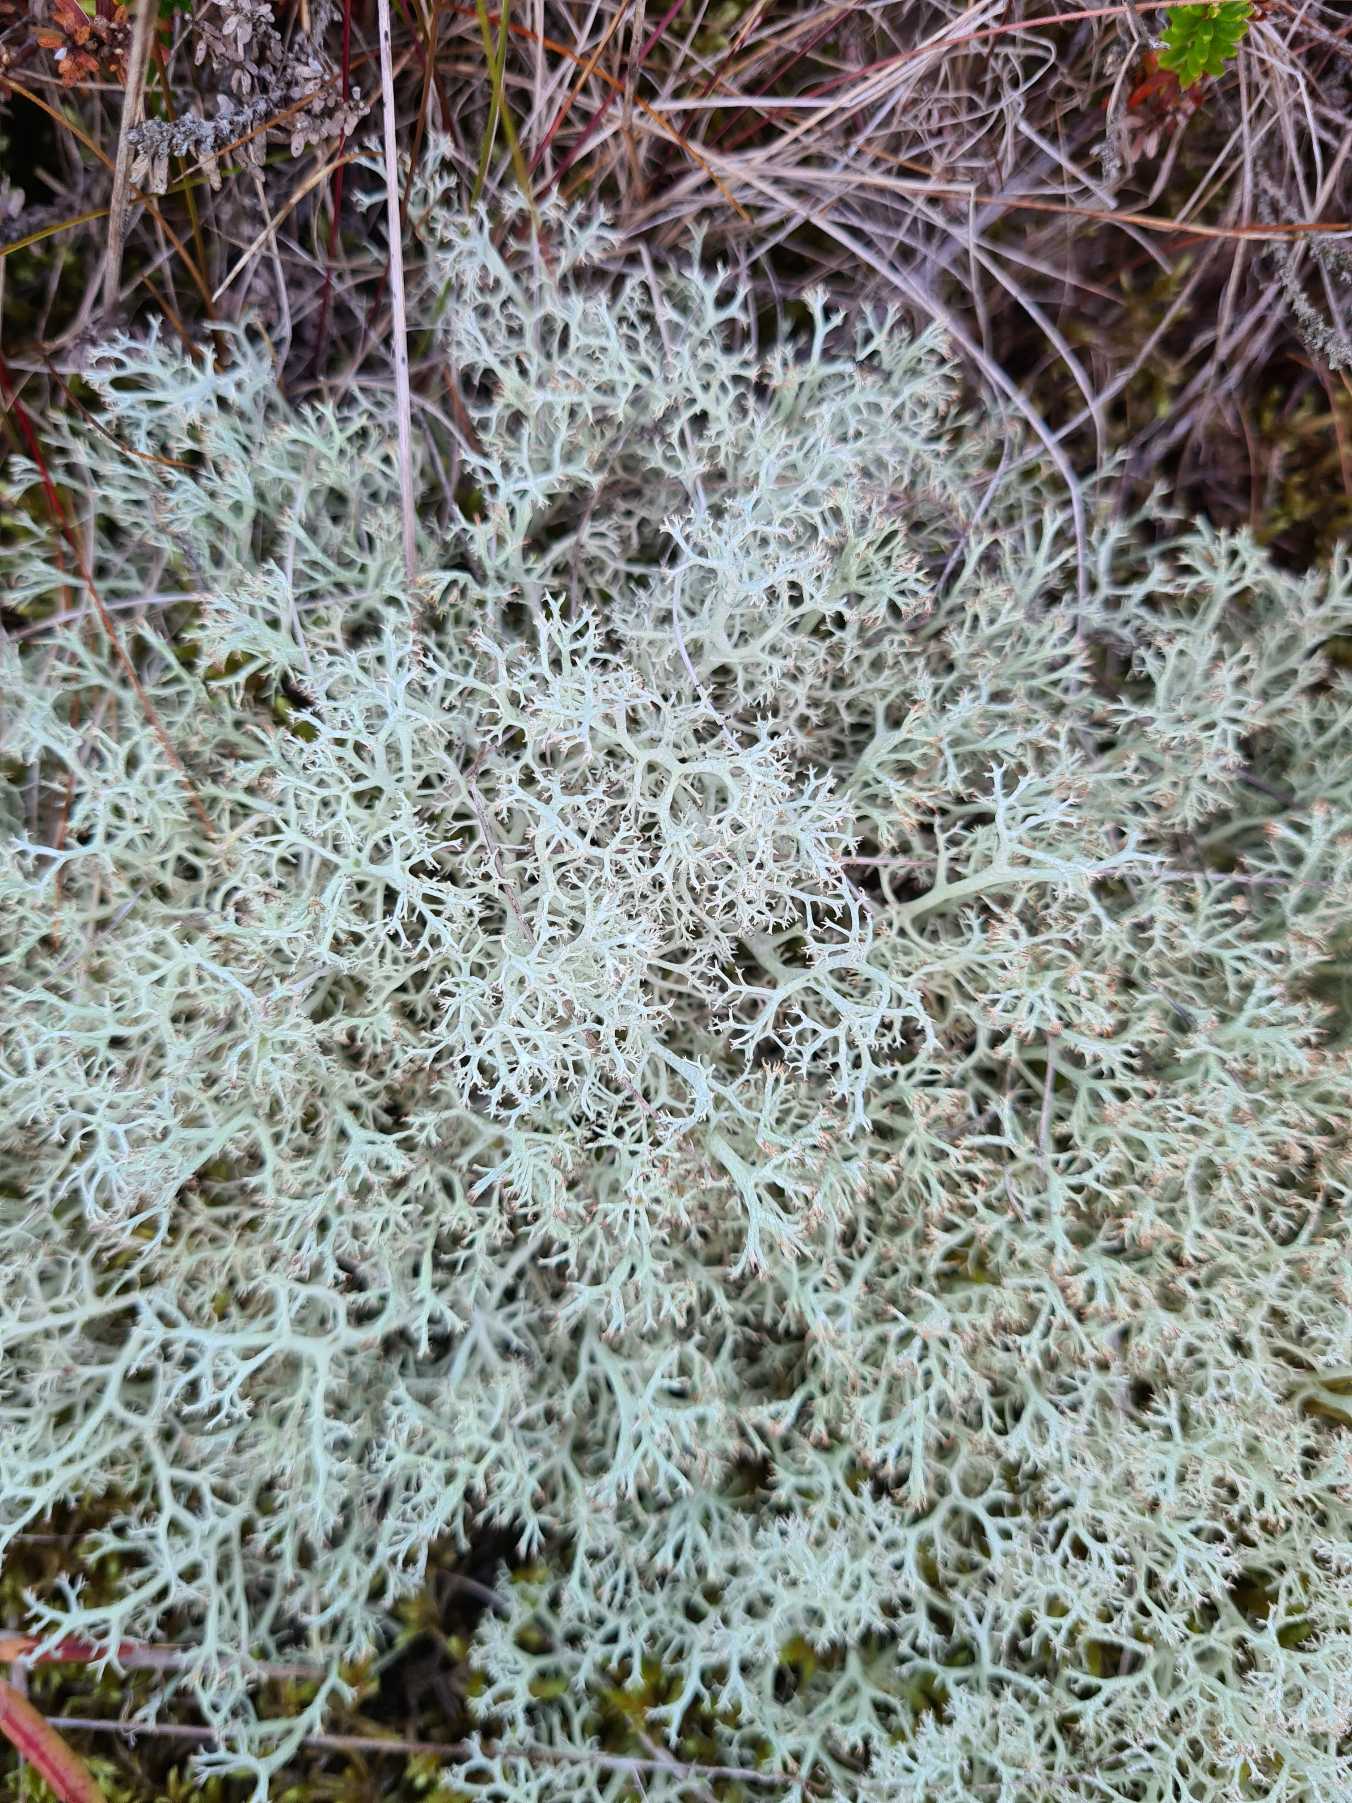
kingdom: Fungi
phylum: Ascomycota
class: Lecanoromycetes
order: Lecanorales
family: Cladoniaceae
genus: Cladonia
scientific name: Cladonia portentosa
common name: Hede-rensdyrlav
